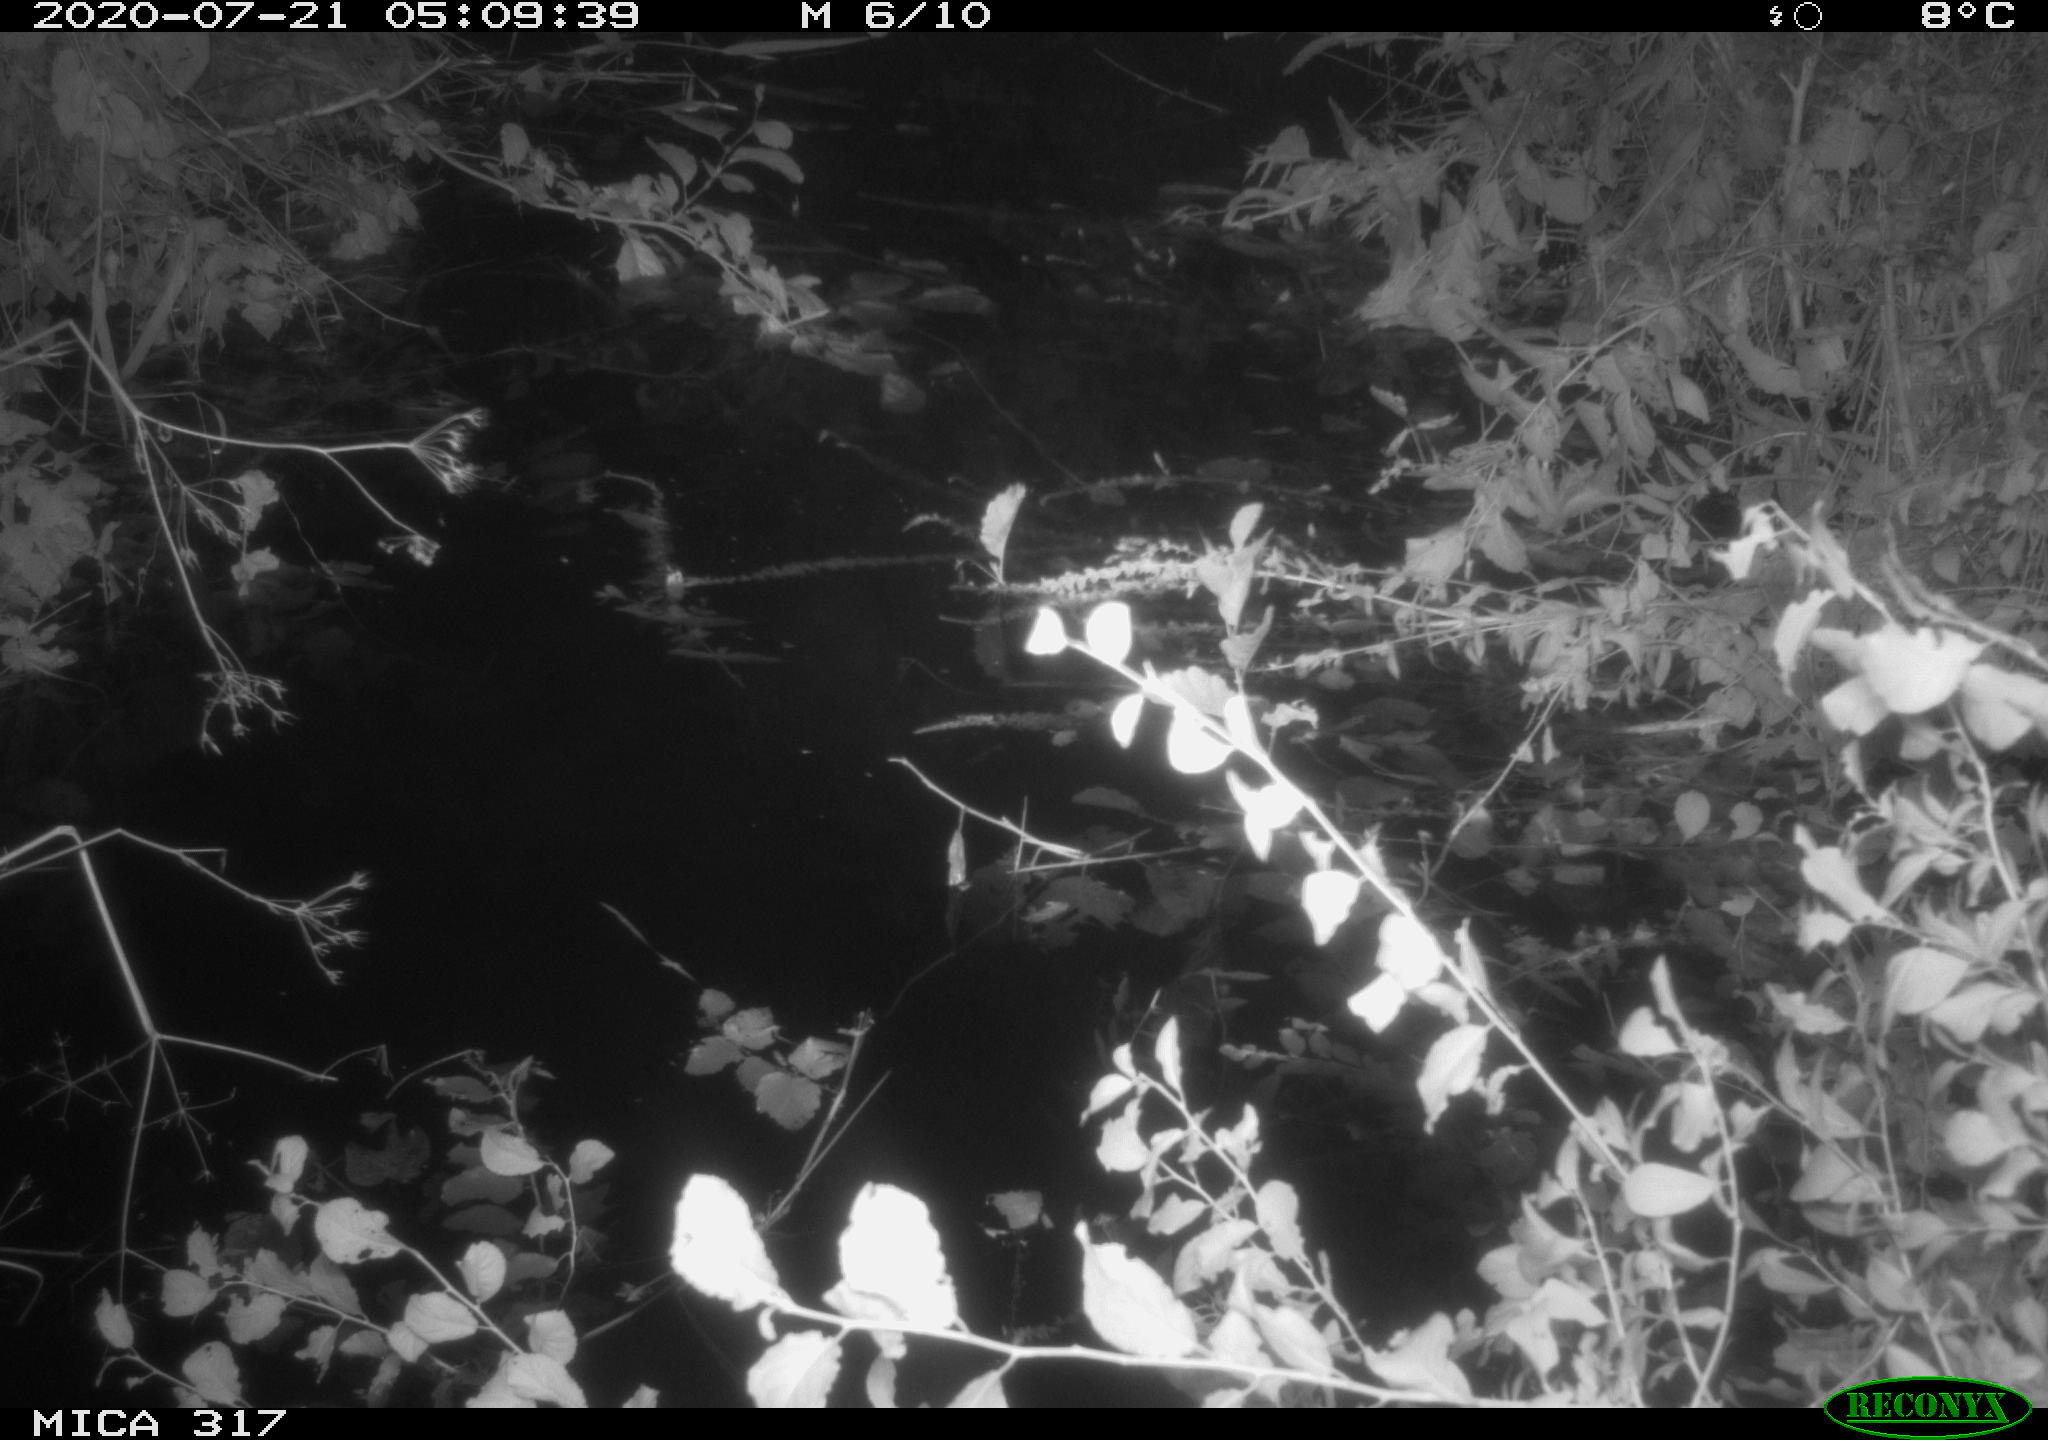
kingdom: Animalia
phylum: Chordata
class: Aves
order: Anseriformes
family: Anatidae
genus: Anas
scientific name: Anas platyrhynchos
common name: Mallard
